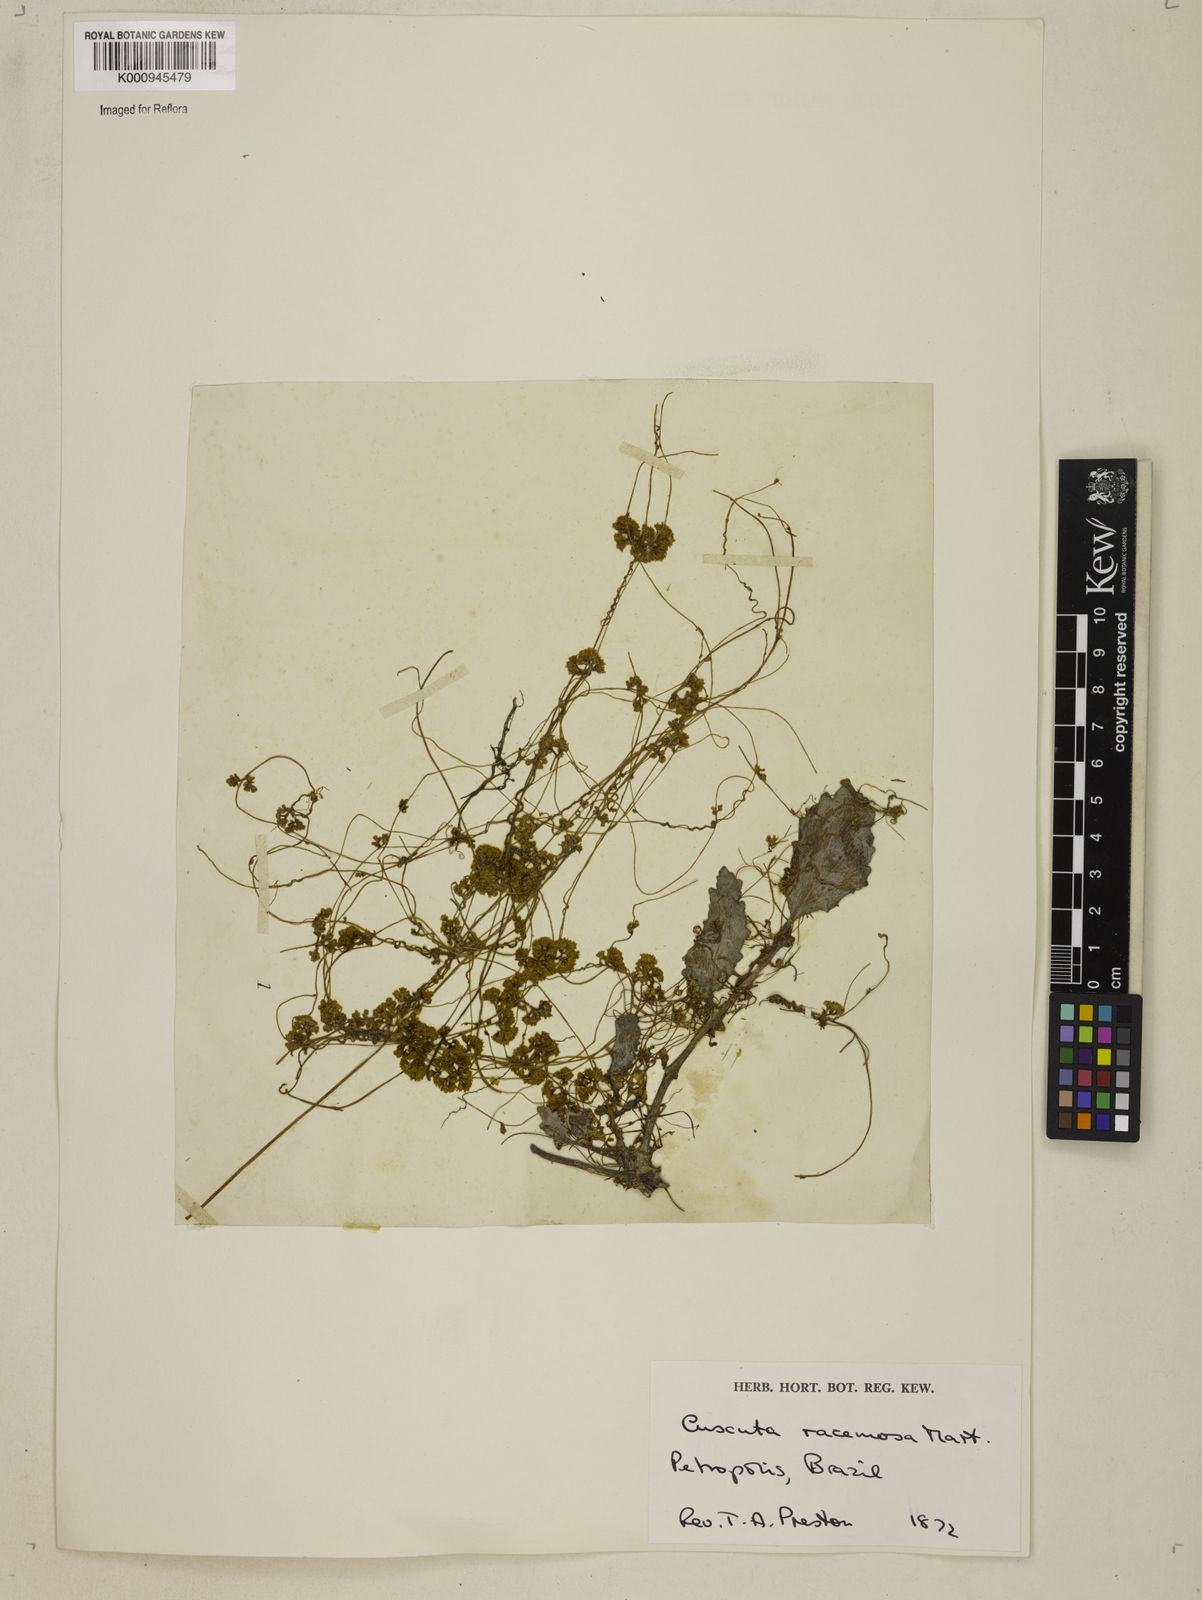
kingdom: Plantae
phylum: Tracheophyta
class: Magnoliopsida
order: Solanales
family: Convolvulaceae
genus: Cuscuta
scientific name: Cuscuta racemosa
